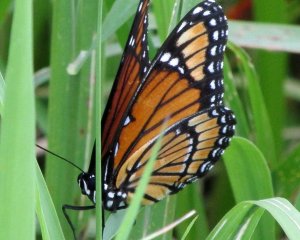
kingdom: Animalia
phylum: Arthropoda
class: Insecta
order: Lepidoptera
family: Nymphalidae
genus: Limenitis
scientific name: Limenitis archippus
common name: Viceroy
